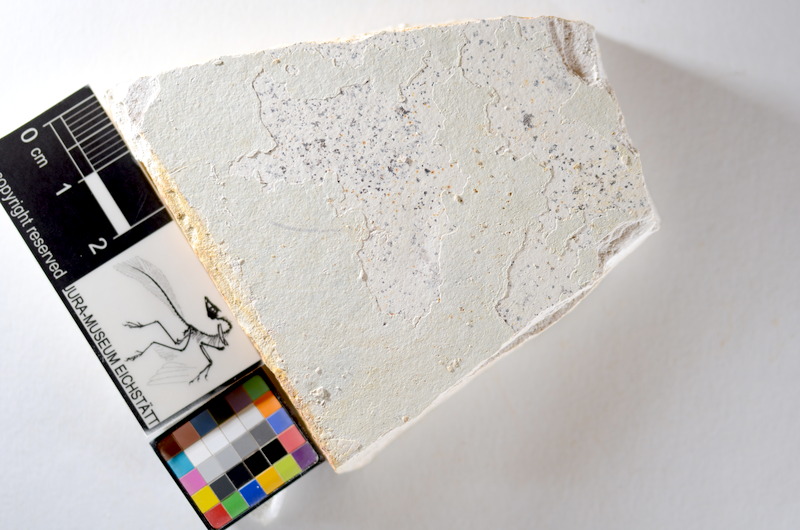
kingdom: Animalia
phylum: Chordata
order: Salmoniformes
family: Orthogonikleithridae
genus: Orthogonikleithrus
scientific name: Orthogonikleithrus hoelli
